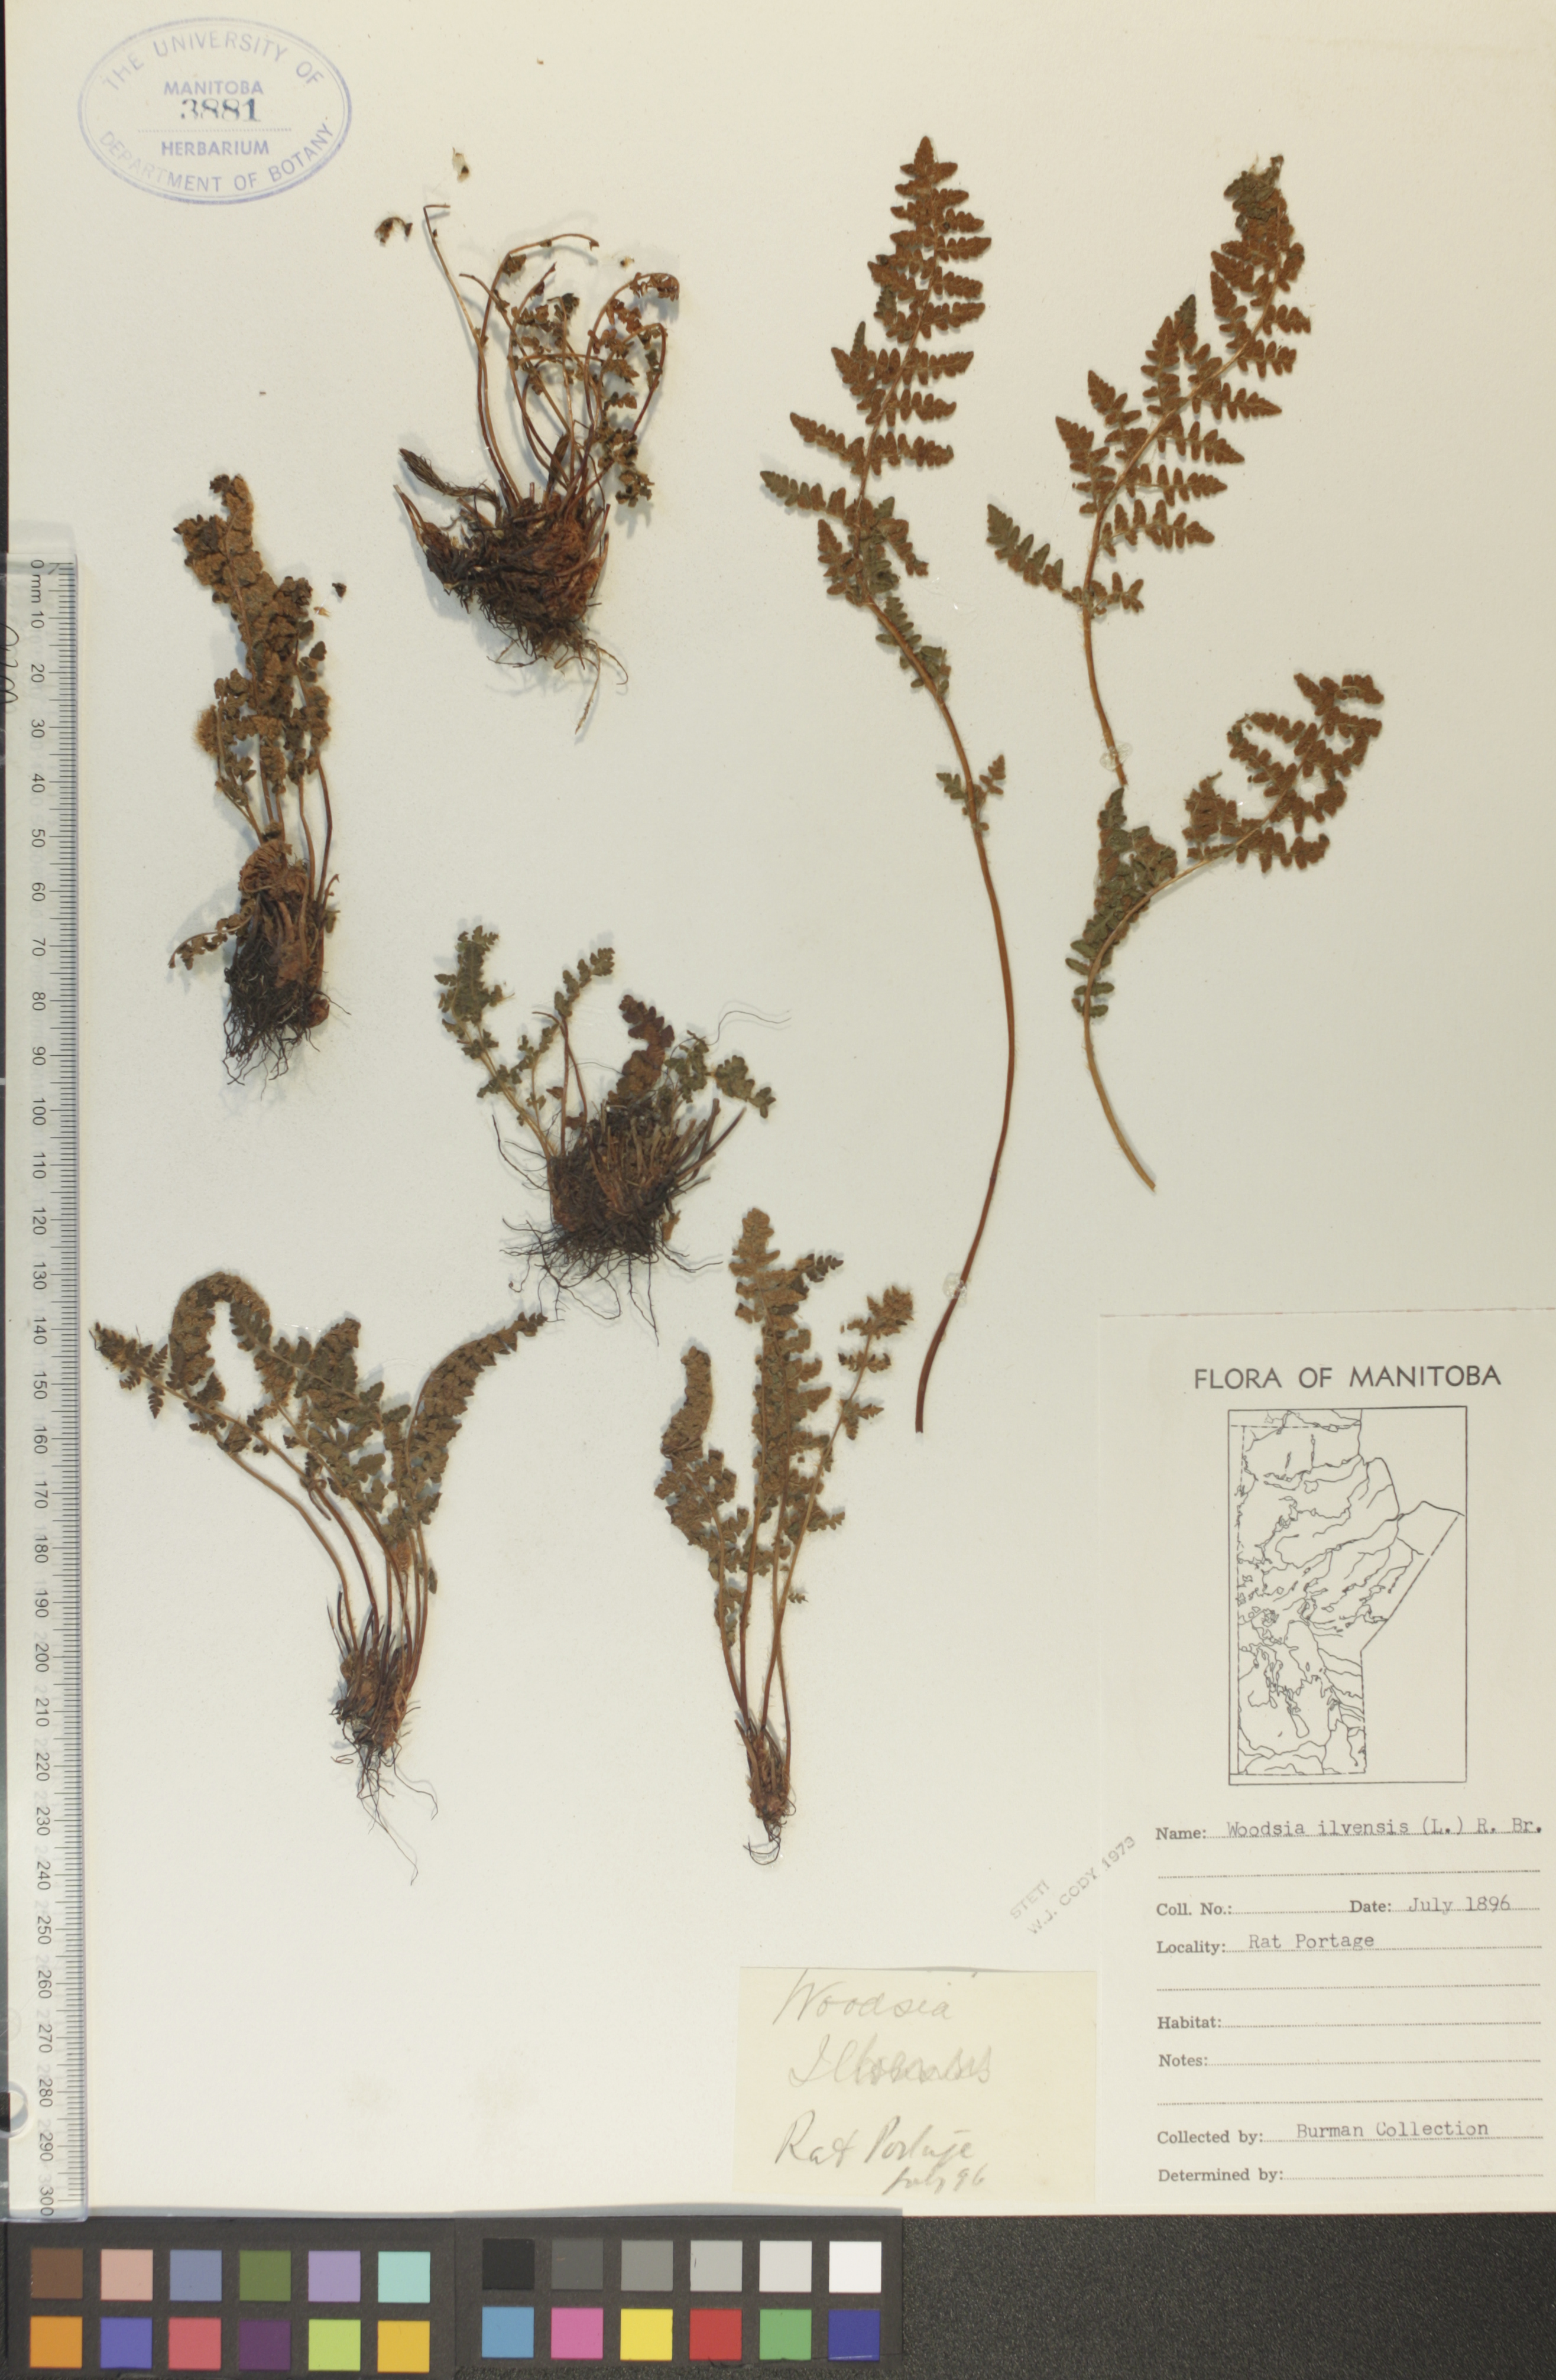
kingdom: Plantae
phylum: Tracheophyta
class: Polypodiopsida
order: Polypodiales
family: Woodsiaceae
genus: Woodsia
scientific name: Woodsia ilvensis
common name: Fragrant woodsia
